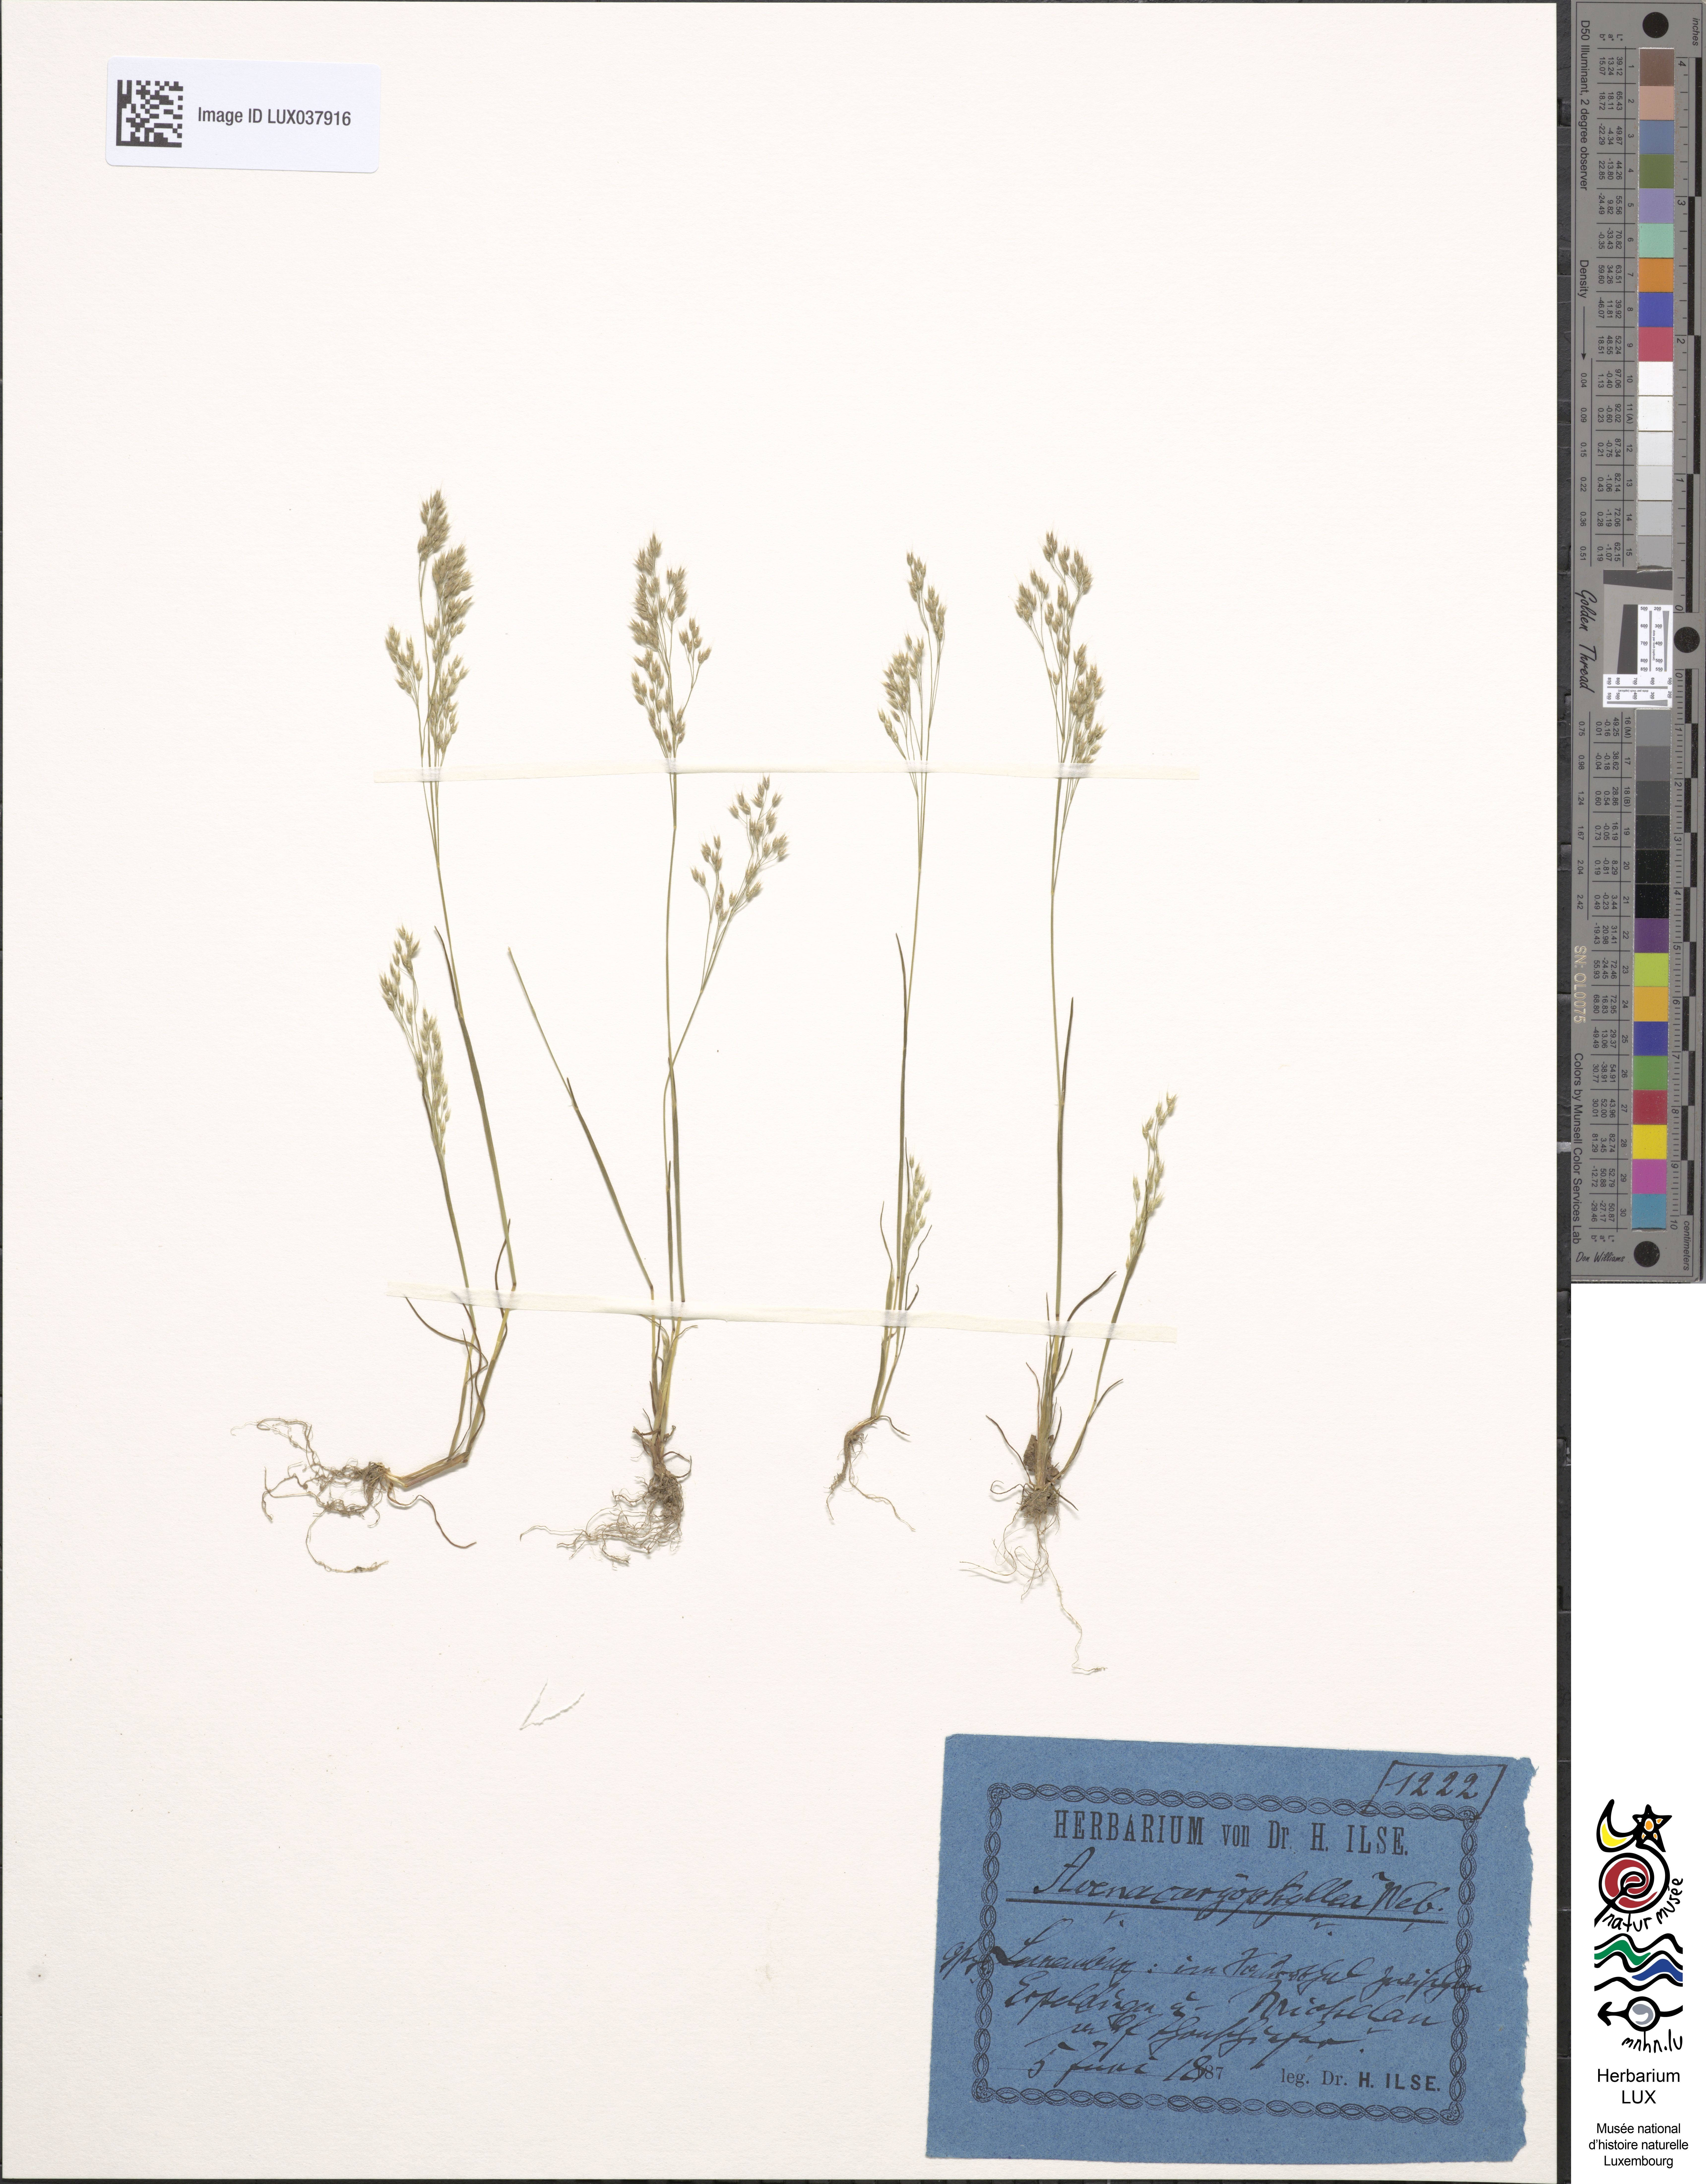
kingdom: Plantae
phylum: Tracheophyta
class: Liliopsida
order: Poales
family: Poaceae
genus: Aira
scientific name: Aira caryophyllea
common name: Silver hairgrass
